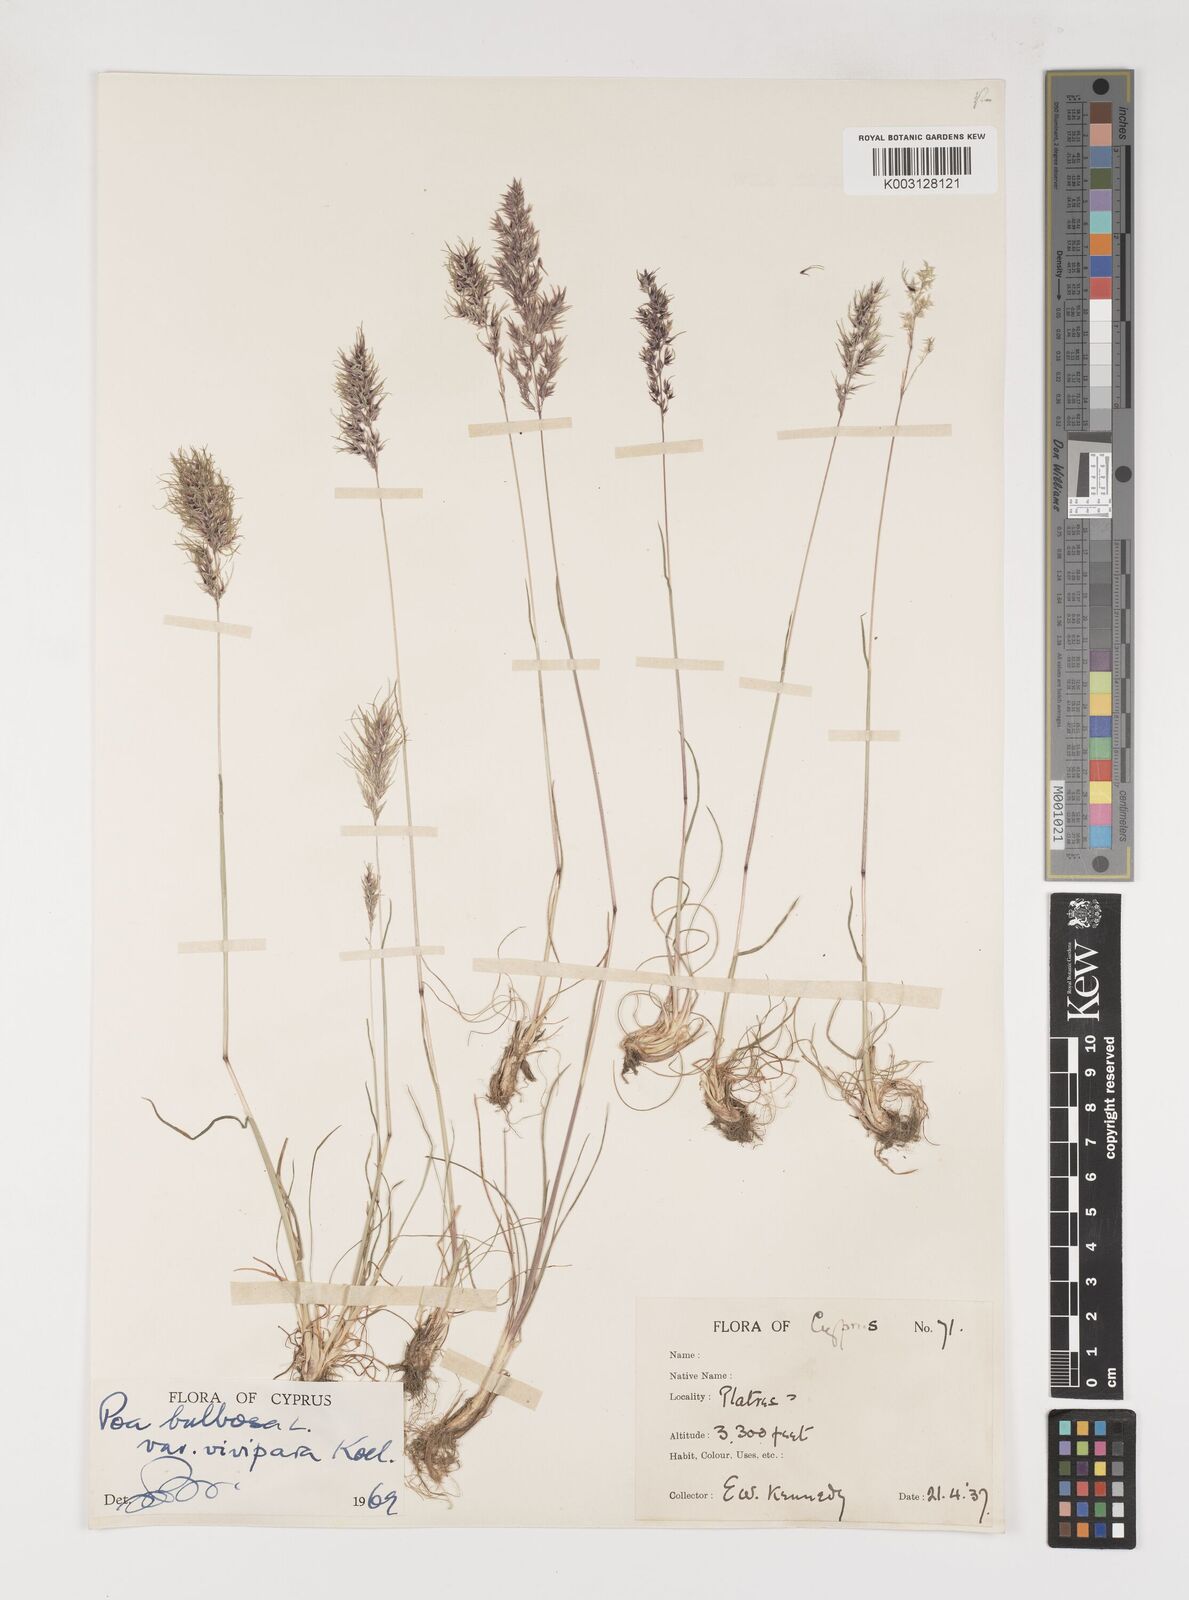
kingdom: Plantae
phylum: Tracheophyta
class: Liliopsida
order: Poales
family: Poaceae
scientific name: Poaceae
